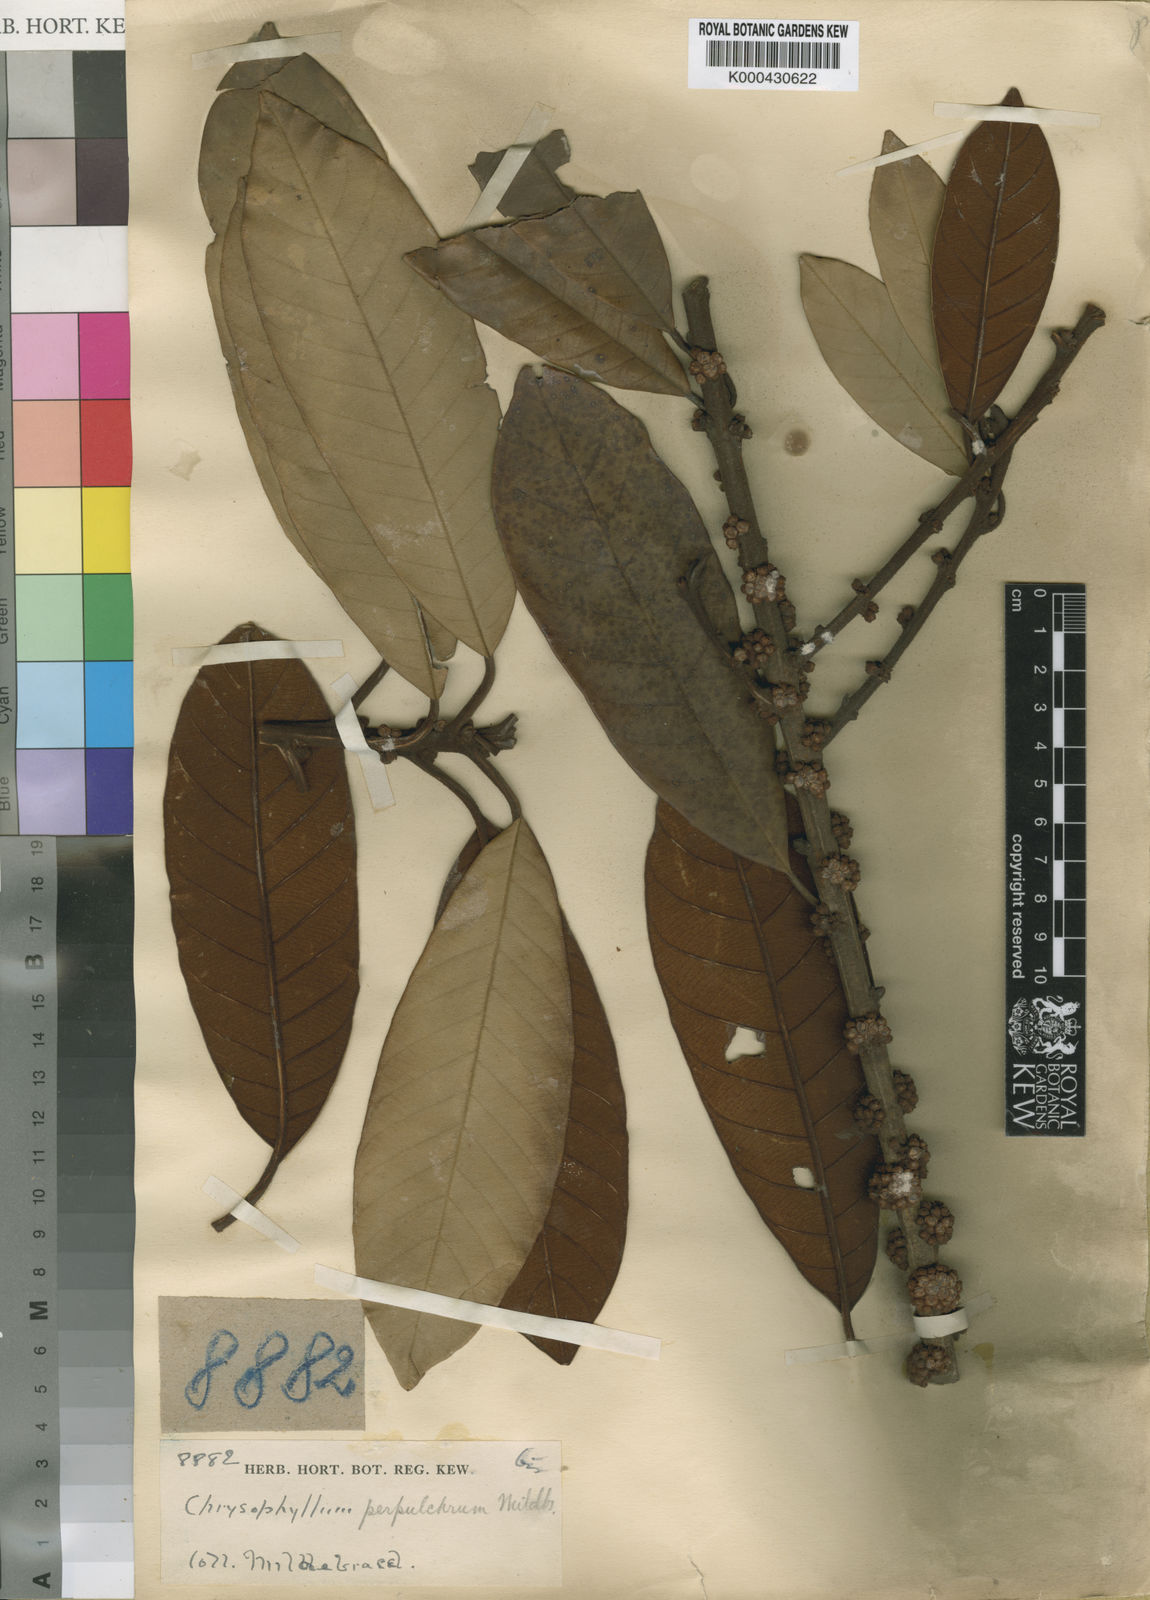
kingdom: Plantae
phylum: Tracheophyta
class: Magnoliopsida
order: Ericales
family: Sapotaceae
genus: Gambeya
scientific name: Gambeya perpulchra
